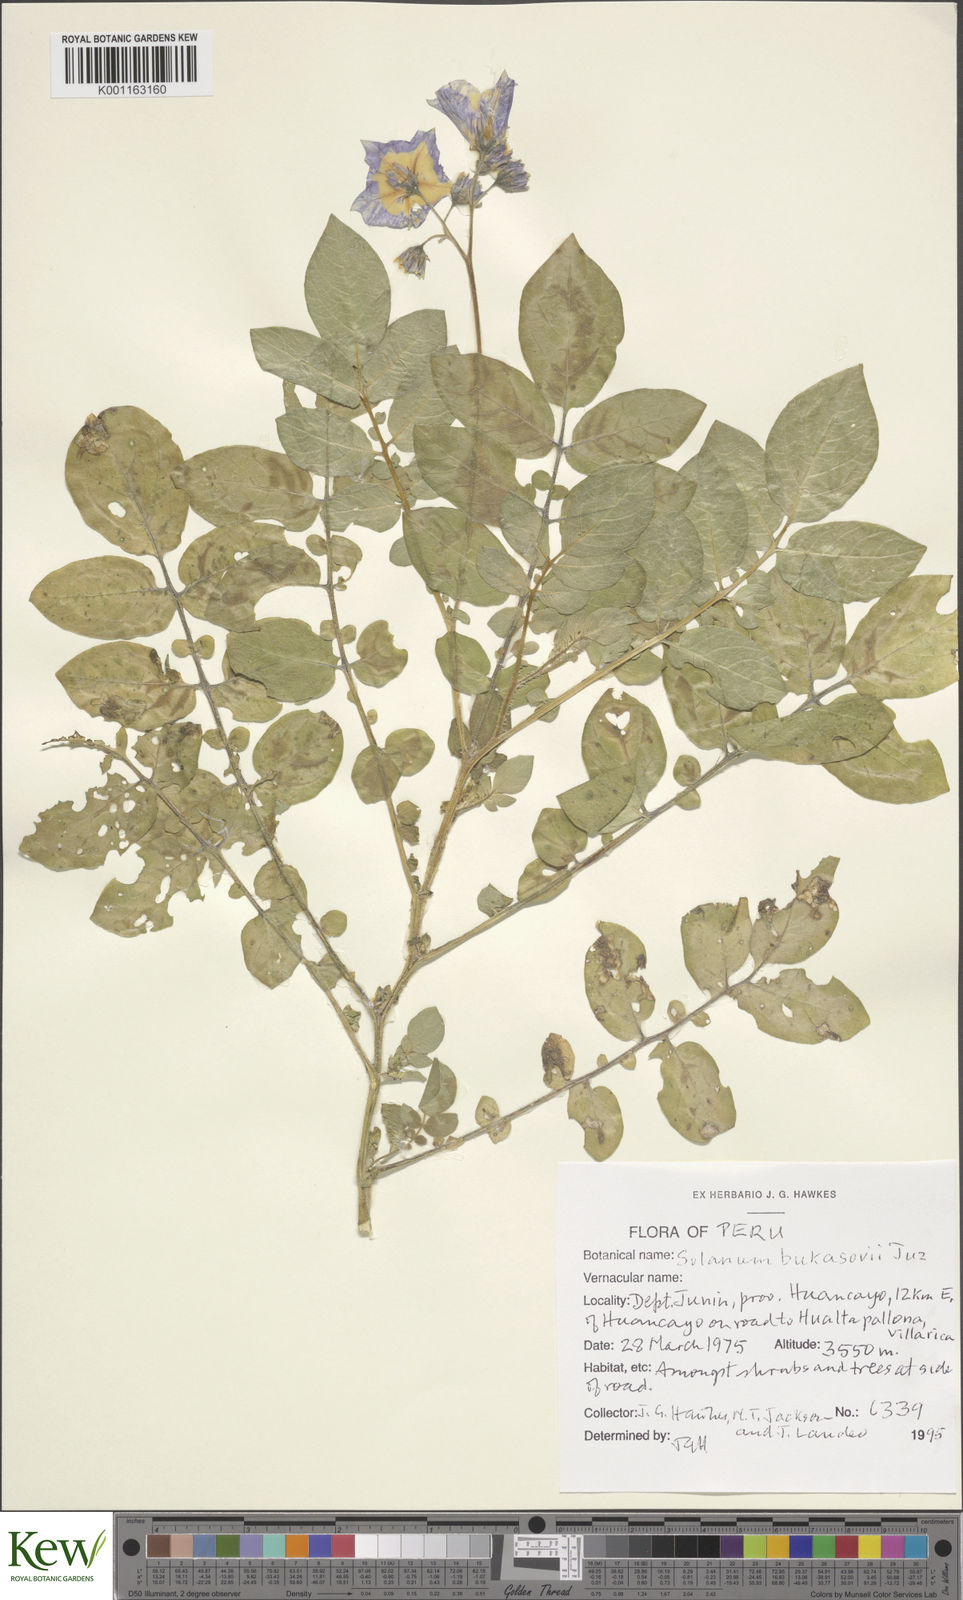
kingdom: Plantae
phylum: Tracheophyta
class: Magnoliopsida
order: Solanales
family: Solanaceae
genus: Solanum
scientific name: Solanum candolleanum
